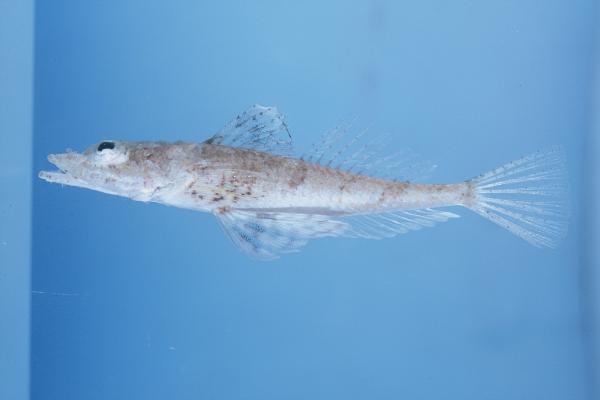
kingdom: Animalia
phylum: Chordata
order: Scorpaeniformes
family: Platycephalidae
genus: Onigocia
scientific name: Onigocia pedimacula
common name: Broadband flathead
